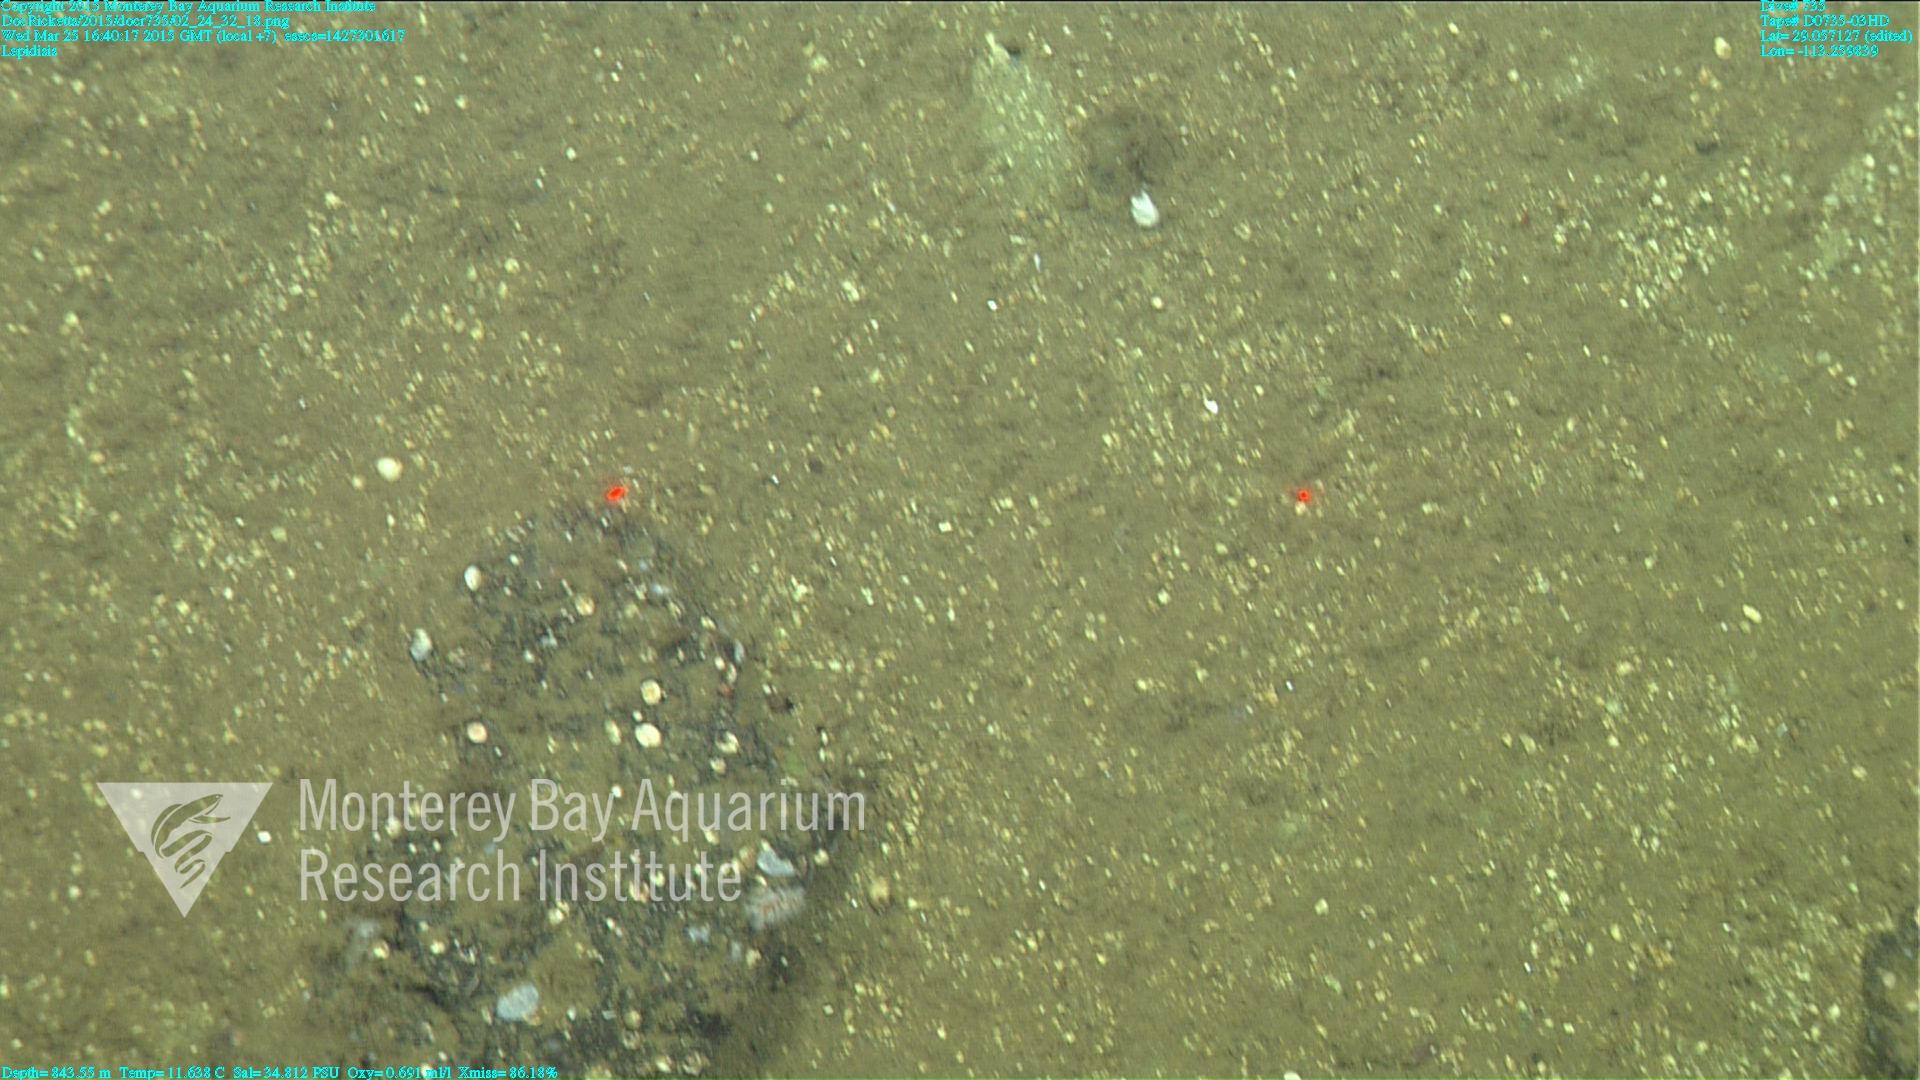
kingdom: Animalia
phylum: Cnidaria
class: Anthozoa
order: Scleralcyonacea
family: Keratoisididae
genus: Lepidisis
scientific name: Lepidisis
